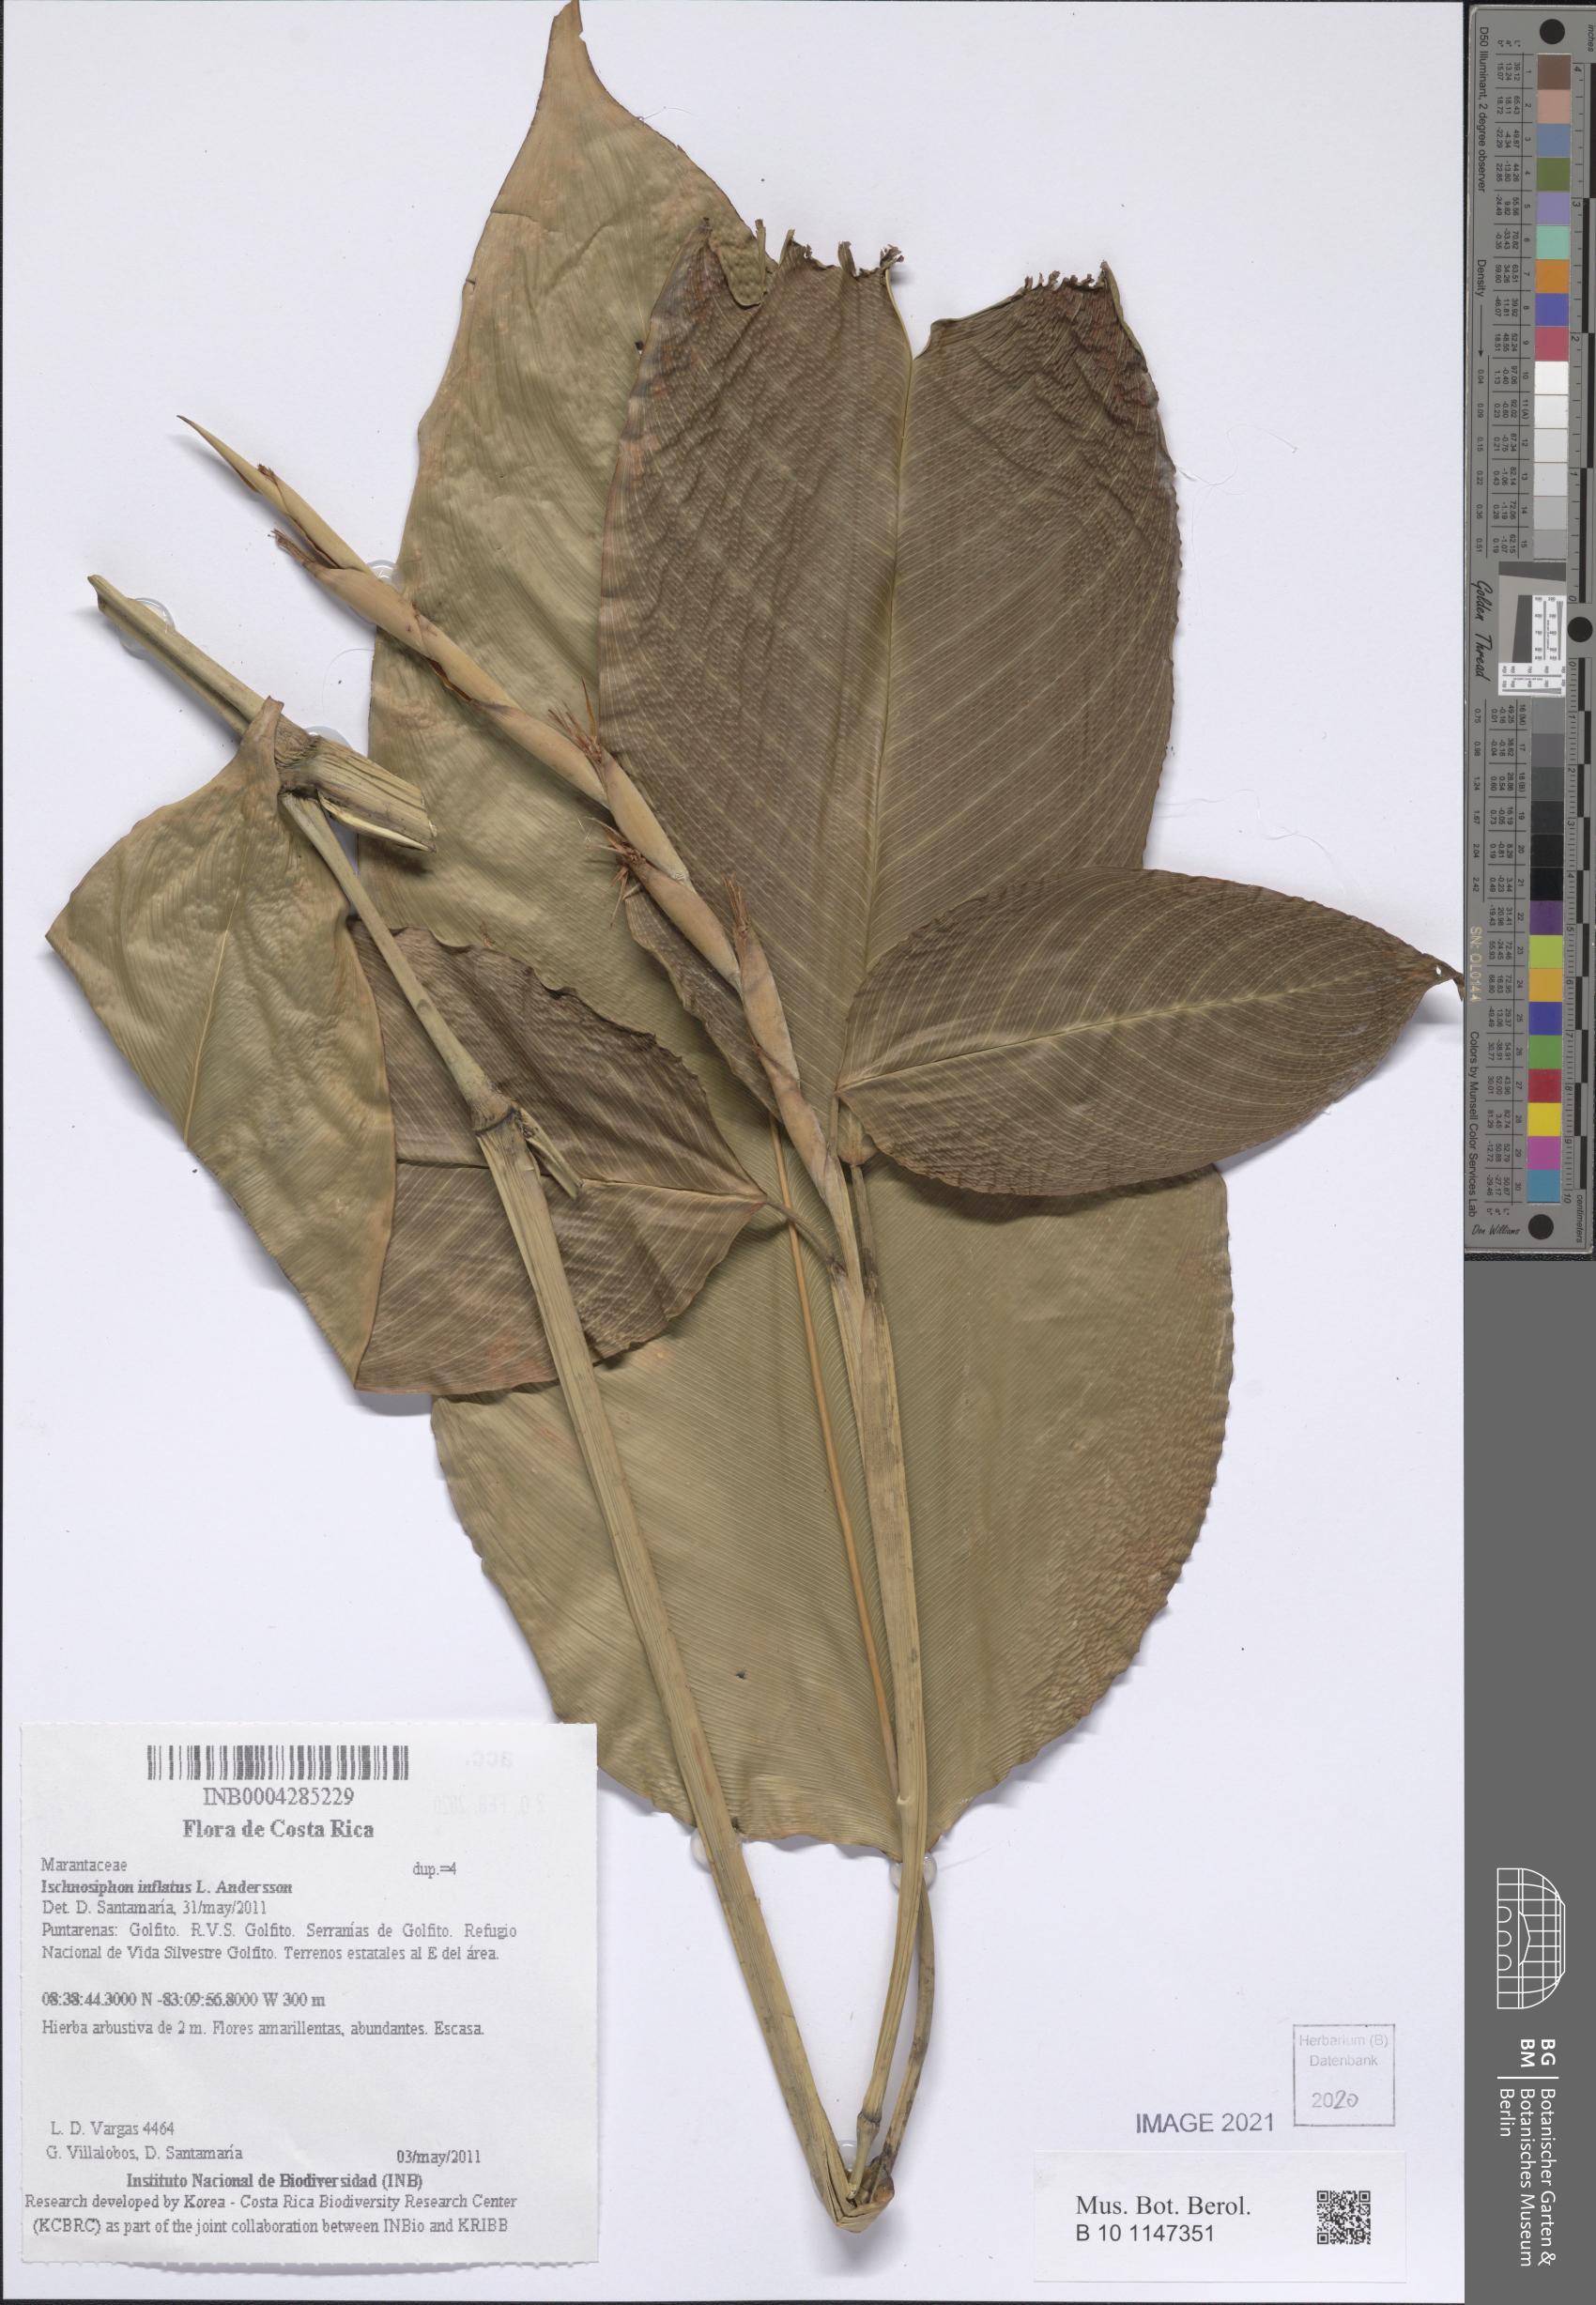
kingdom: Plantae
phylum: Tracheophyta
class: Liliopsida
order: Zingiberales
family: Marantaceae
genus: Ischnosiphon
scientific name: Ischnosiphon inflatus
